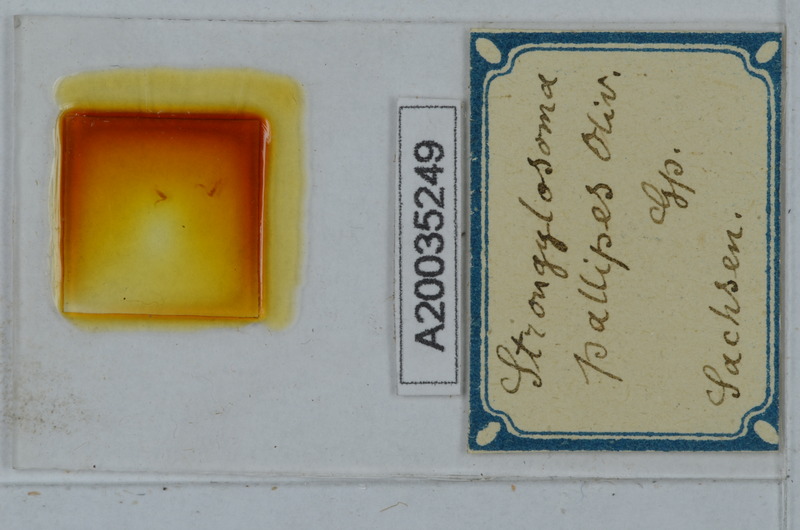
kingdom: Animalia
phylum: Arthropoda
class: Diplopoda
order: Polydesmida
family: Paradoxosomatidae
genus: Strongylosoma
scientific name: Strongylosoma stigmatosus
